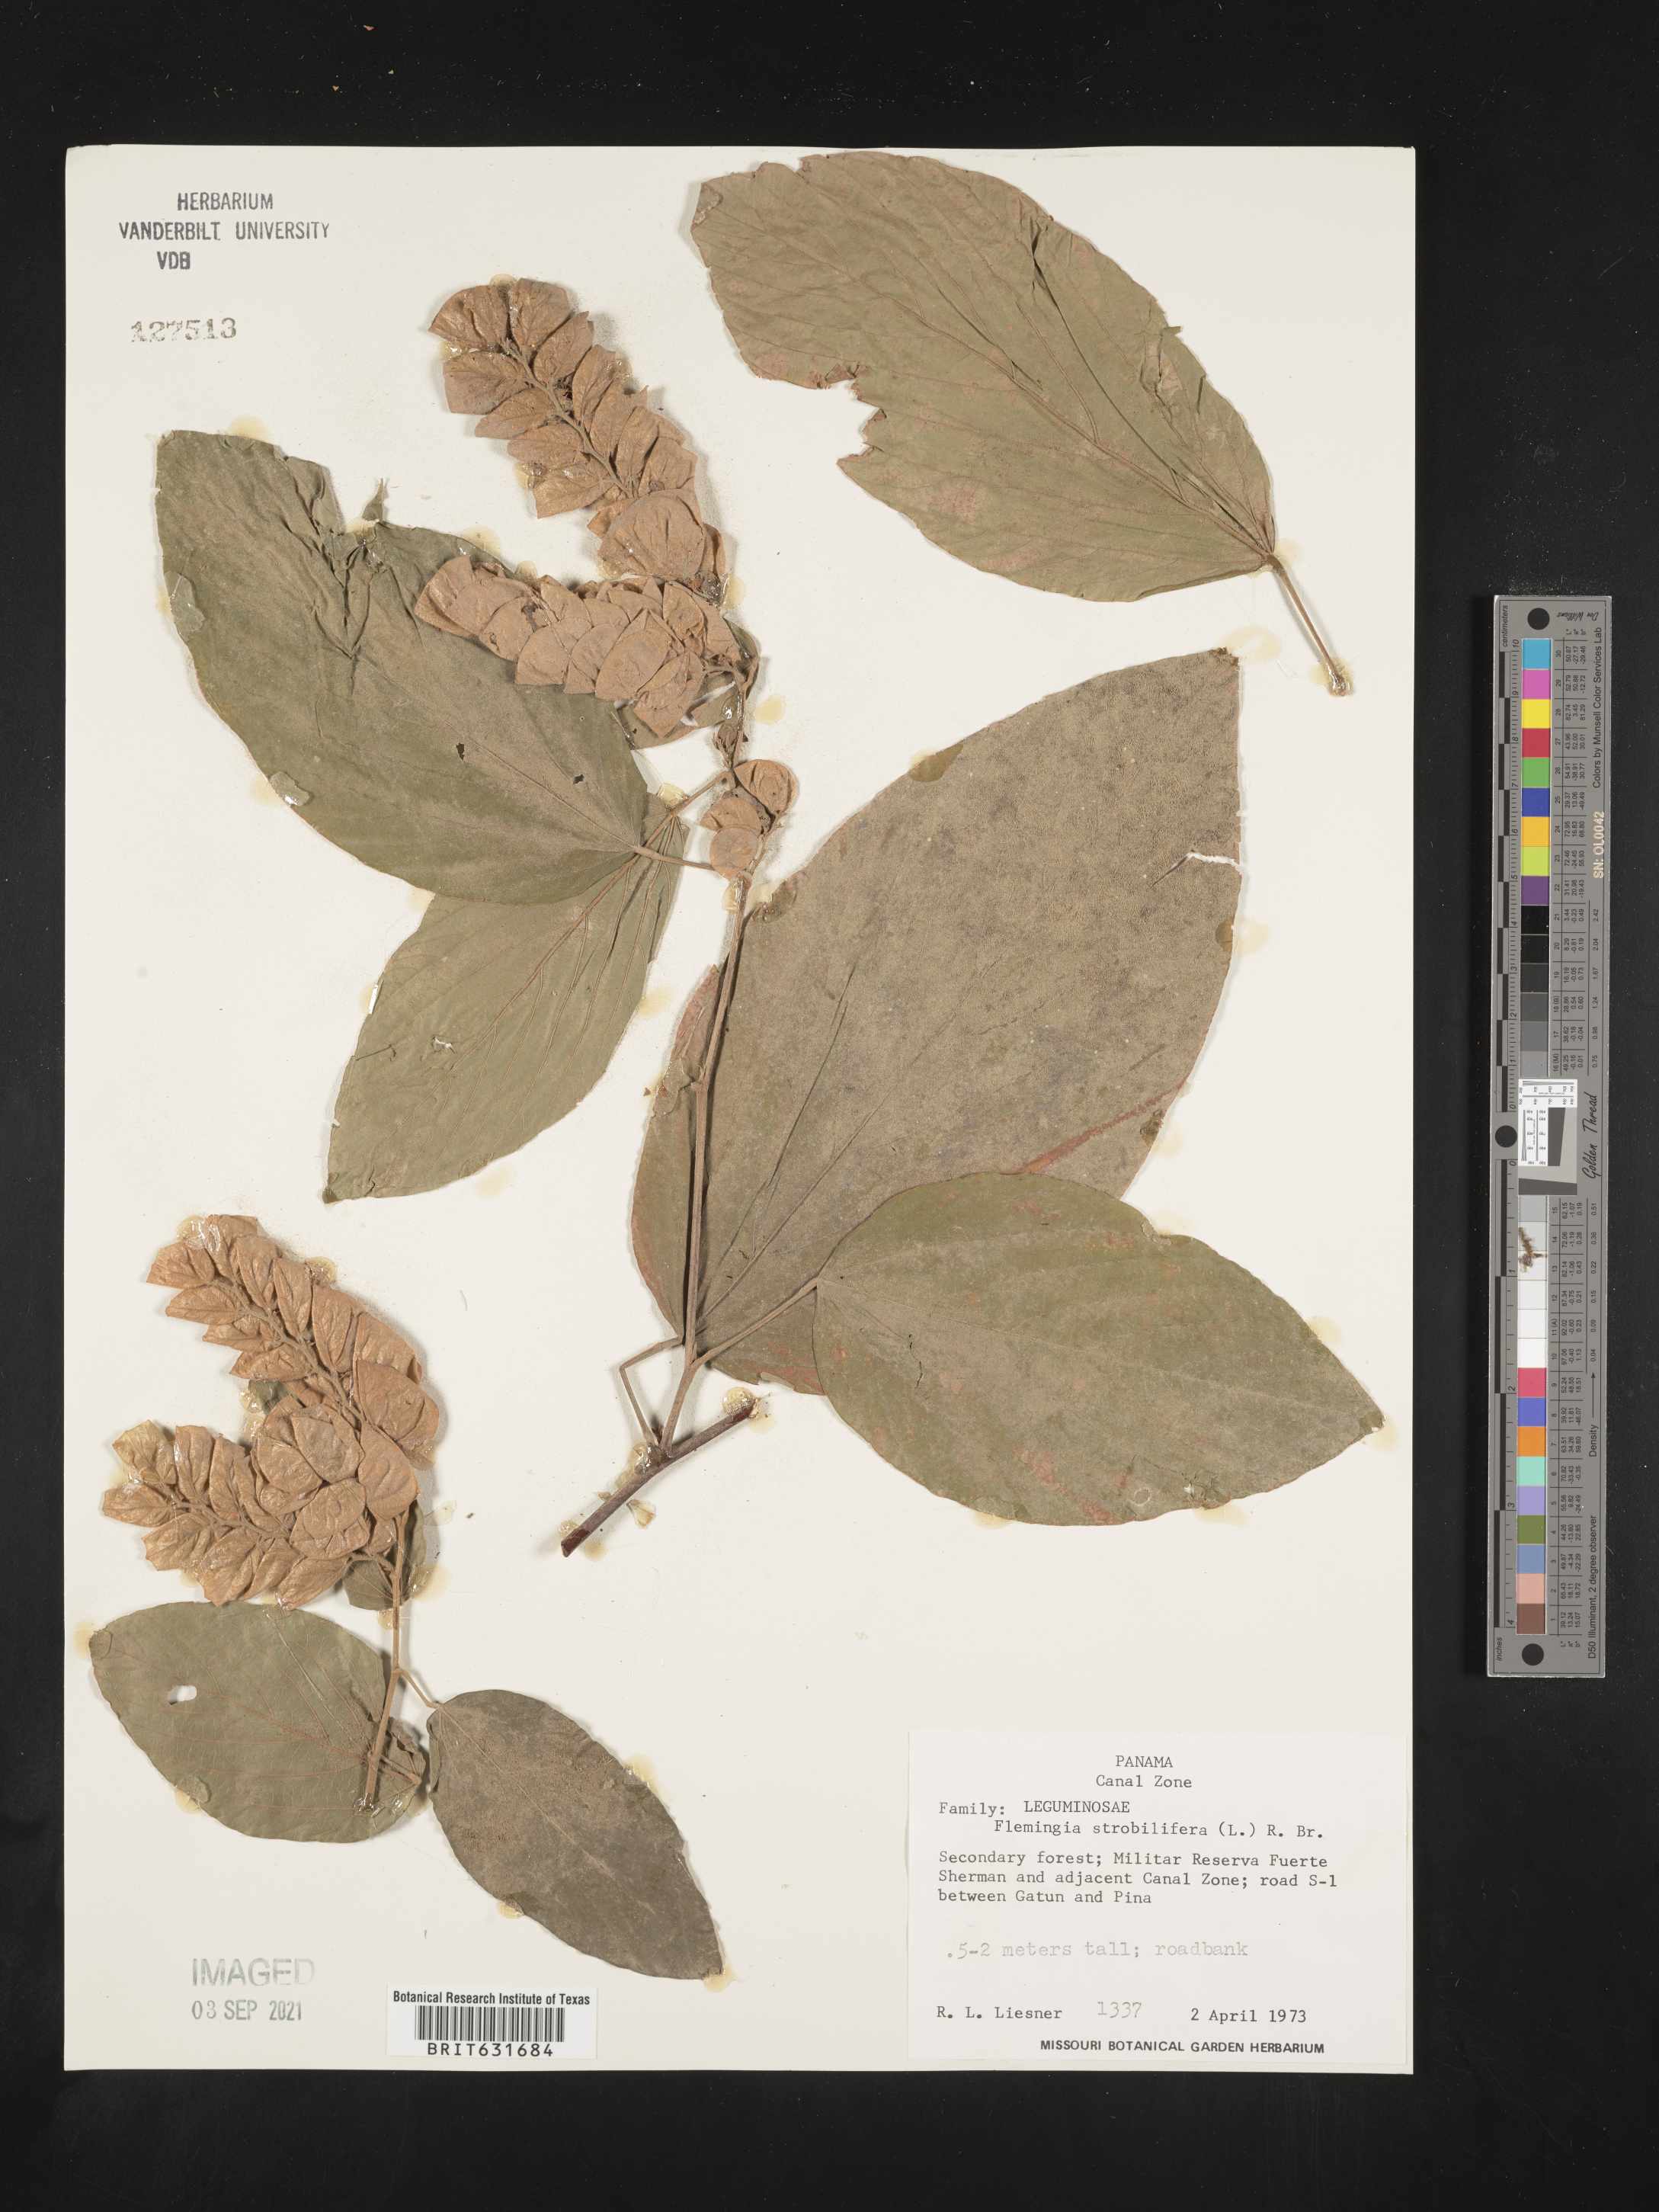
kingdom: Plantae
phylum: Tracheophyta
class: Magnoliopsida
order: Fabales
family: Fabaceae
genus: Flemingia
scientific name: Flemingia
